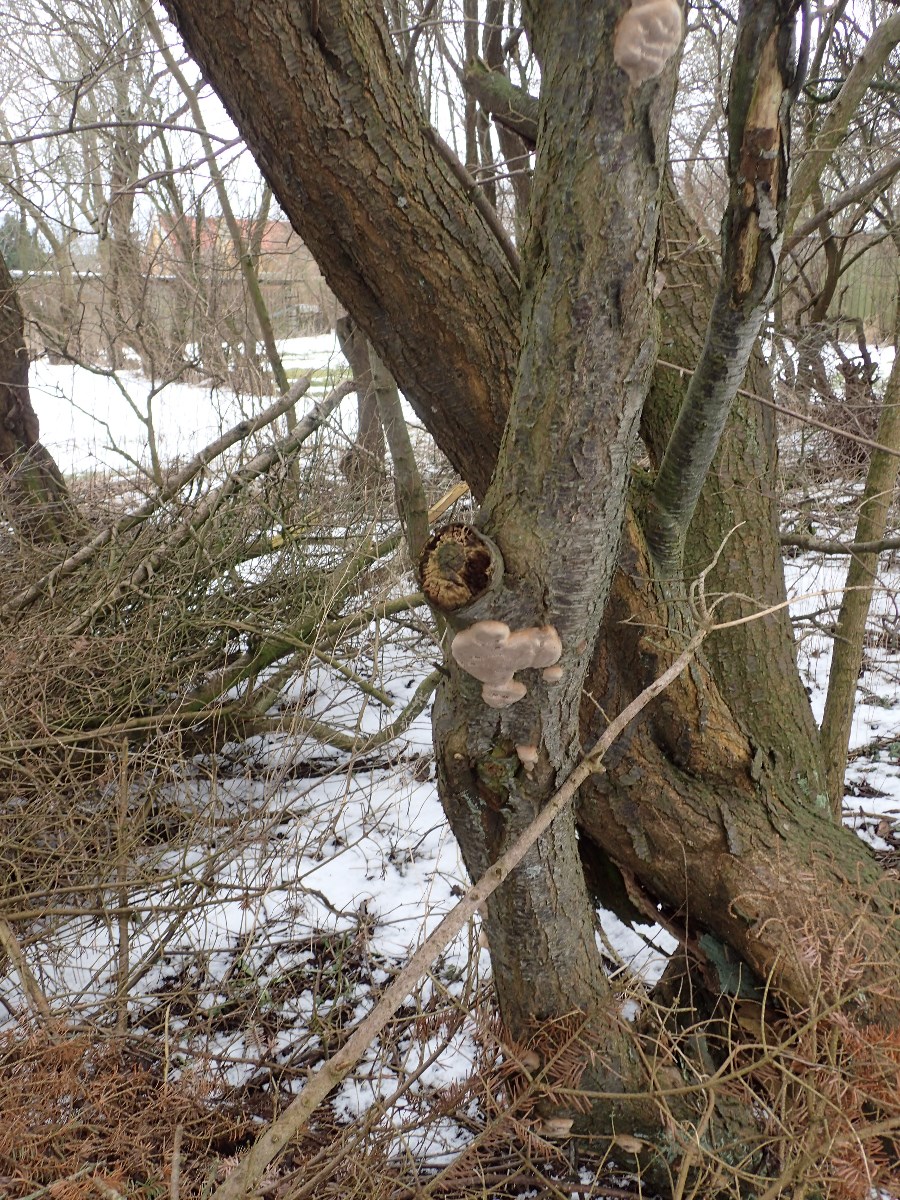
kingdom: Fungi
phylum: Basidiomycota
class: Agaricomycetes
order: Hymenochaetales
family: Hymenochaetaceae
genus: Phellinus
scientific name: Phellinus pomaceus
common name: blomme-ildporesvamp
